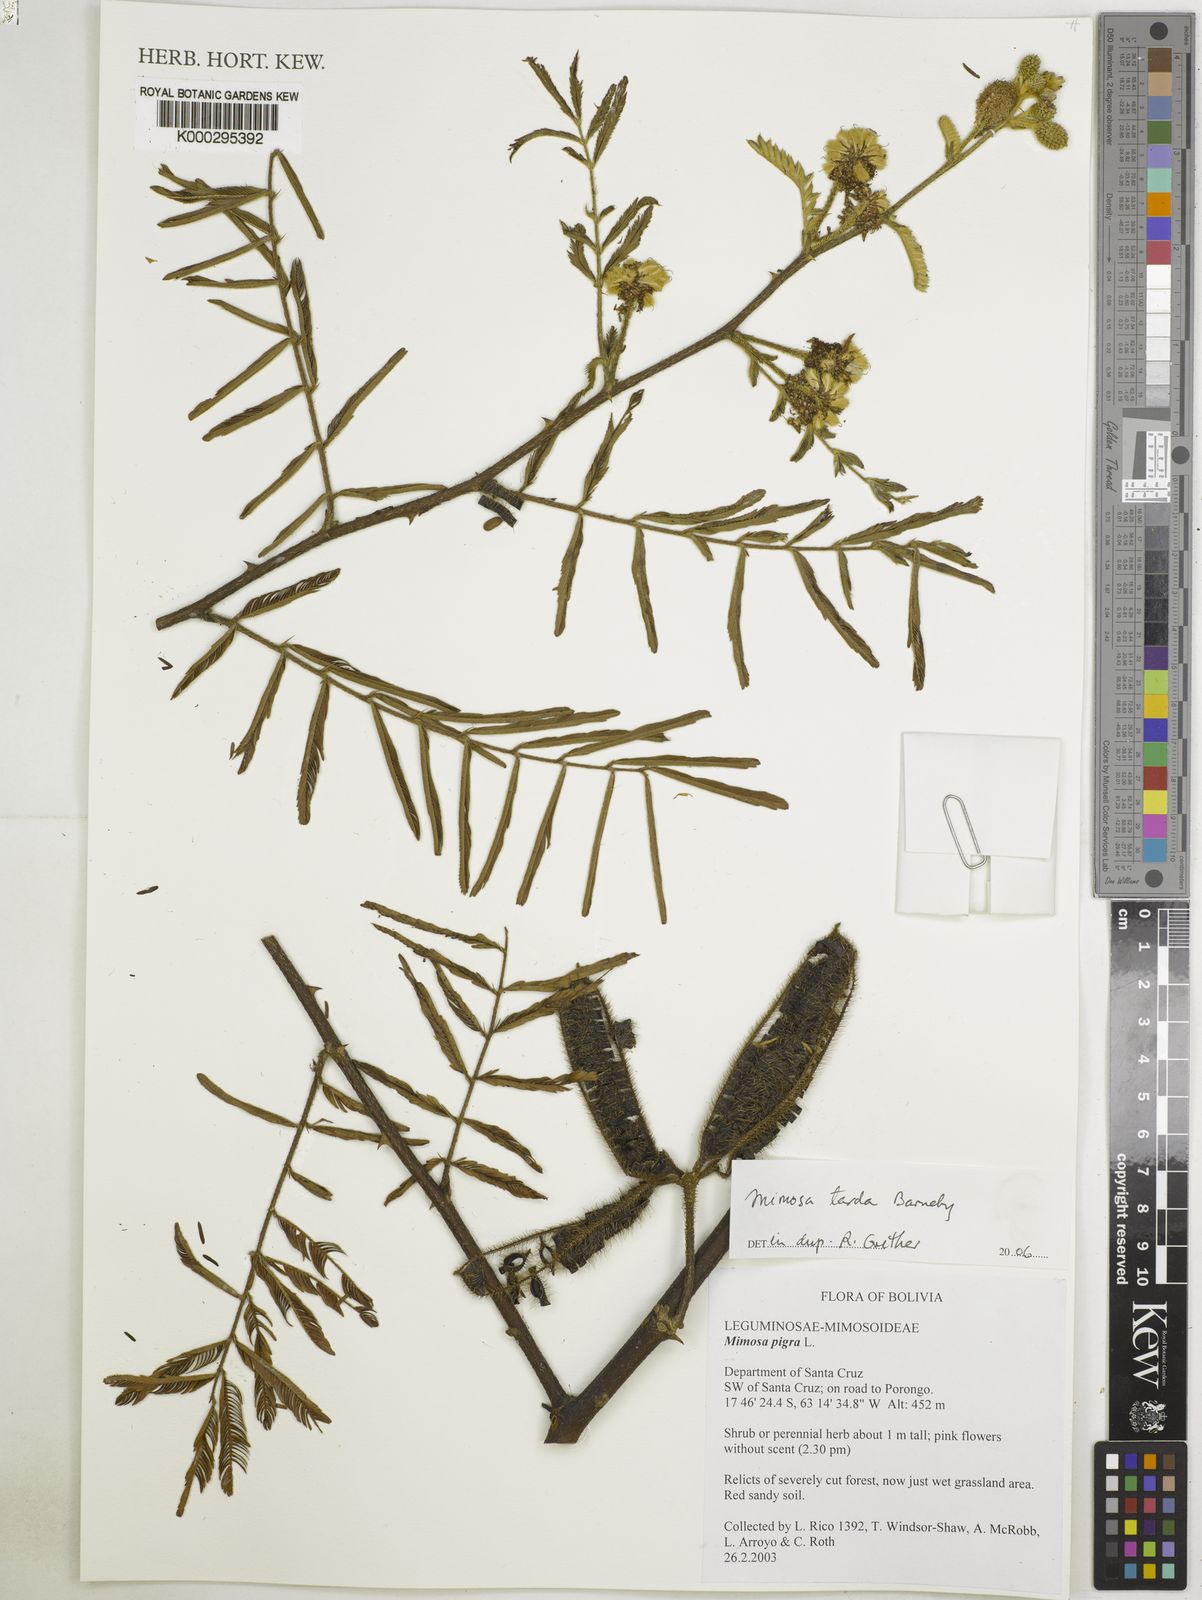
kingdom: Plantae
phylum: Tracheophyta
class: Magnoliopsida
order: Fabales
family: Fabaceae
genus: Mimosa
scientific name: Mimosa tarda
